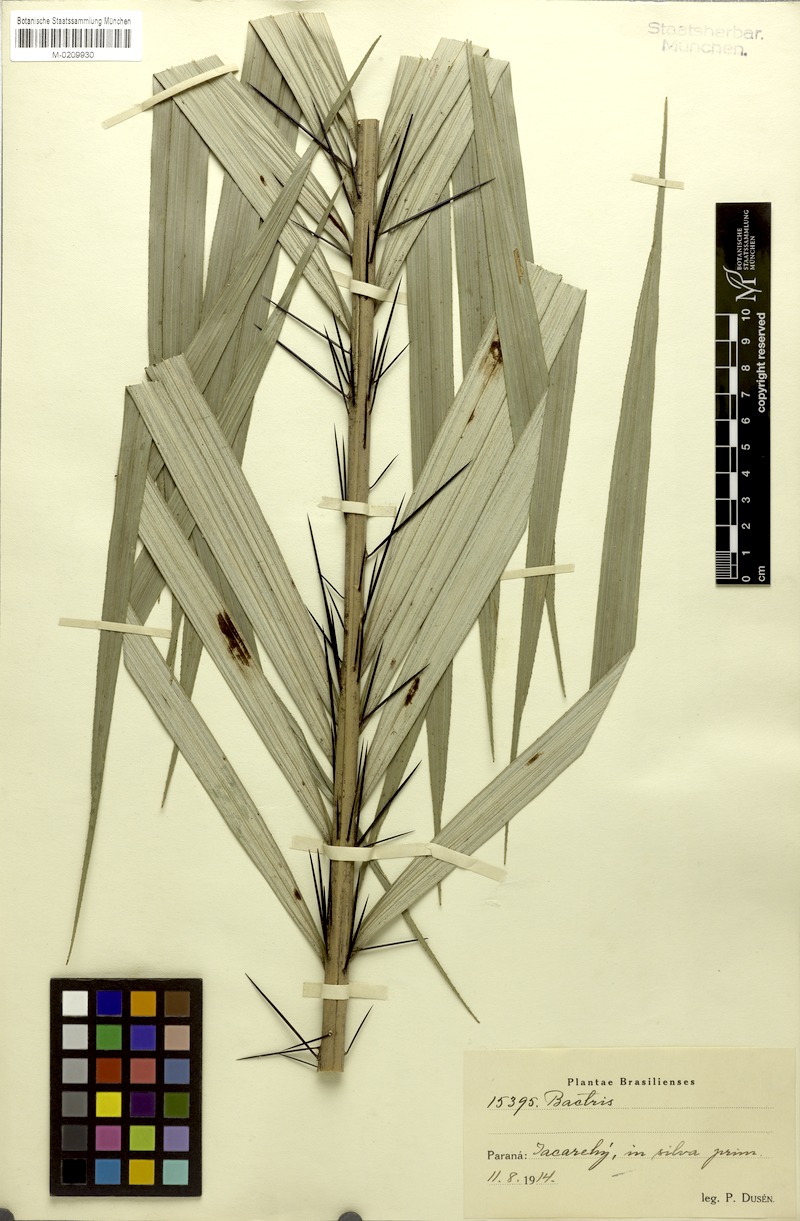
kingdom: Plantae
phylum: Tracheophyta
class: Liliopsida
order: Arecales
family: Arecaceae
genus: Bactris
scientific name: Bactris
